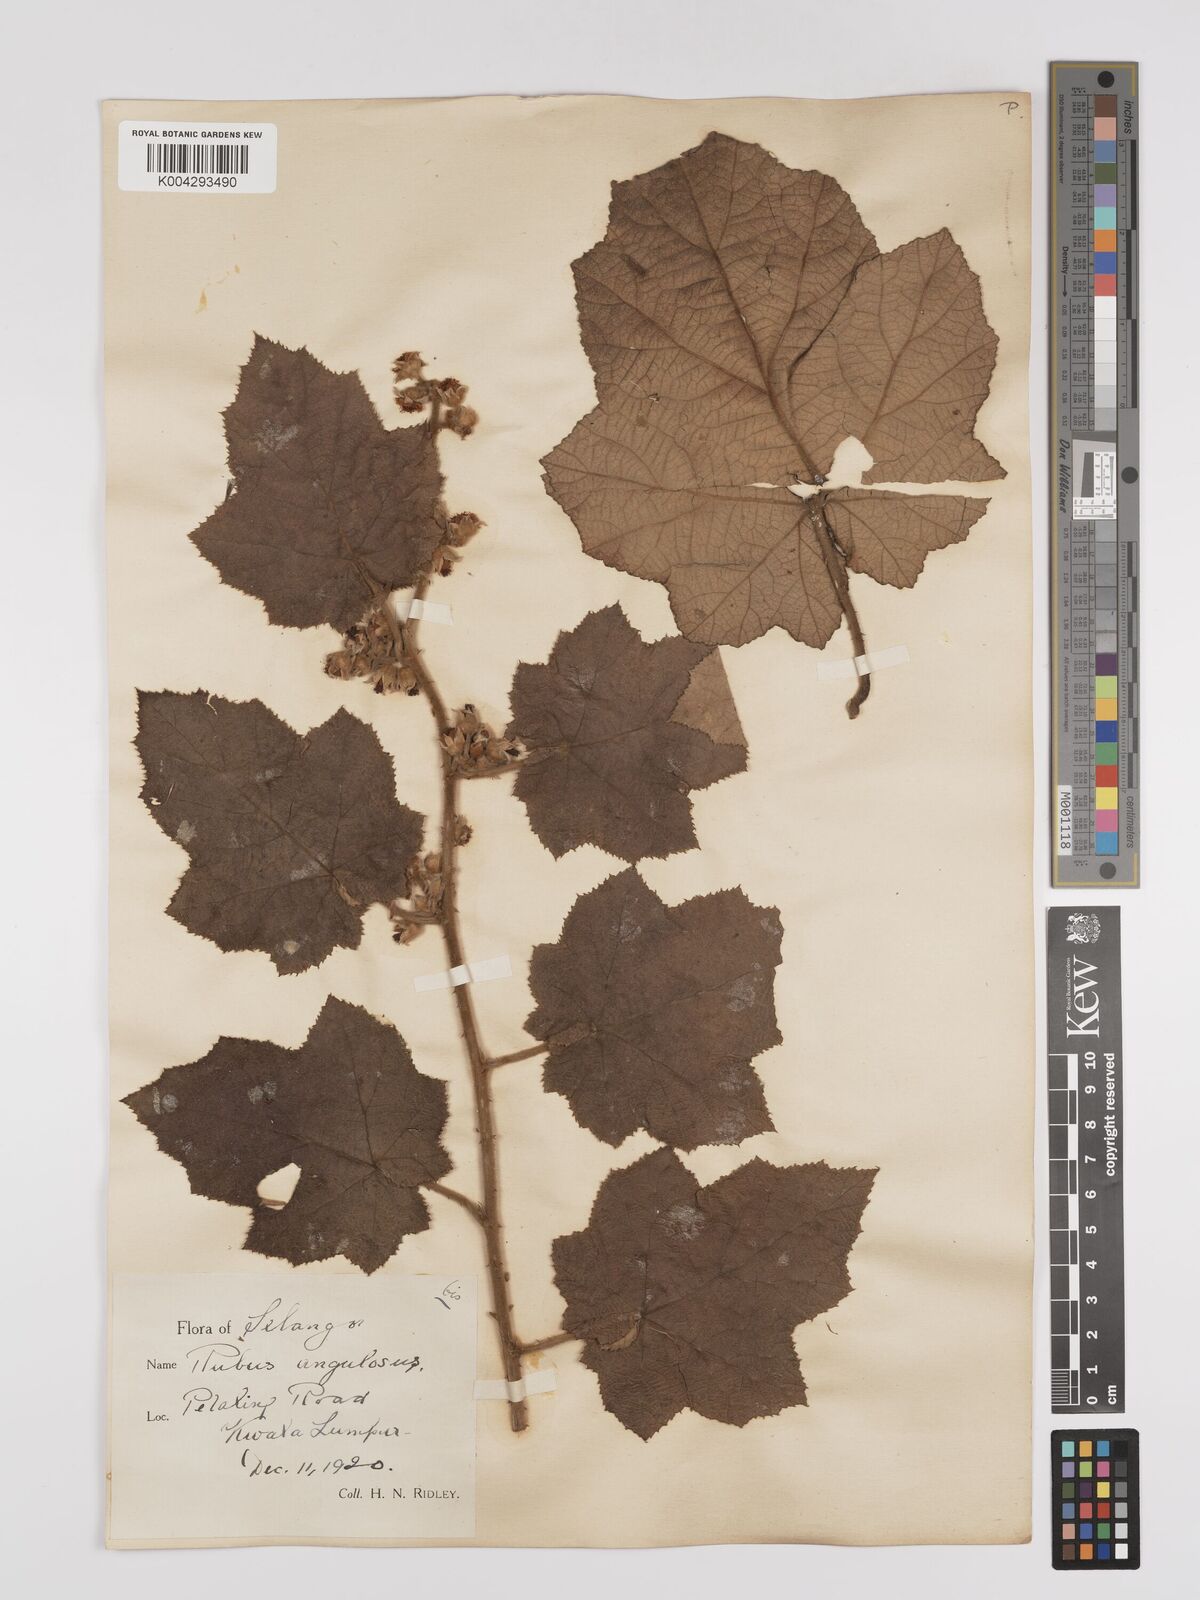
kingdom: Plantae
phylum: Tracheophyta
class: Magnoliopsida
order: Rosales
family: Rosaceae
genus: Rubus
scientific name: Rubus moluccanus
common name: Wild raspberry
